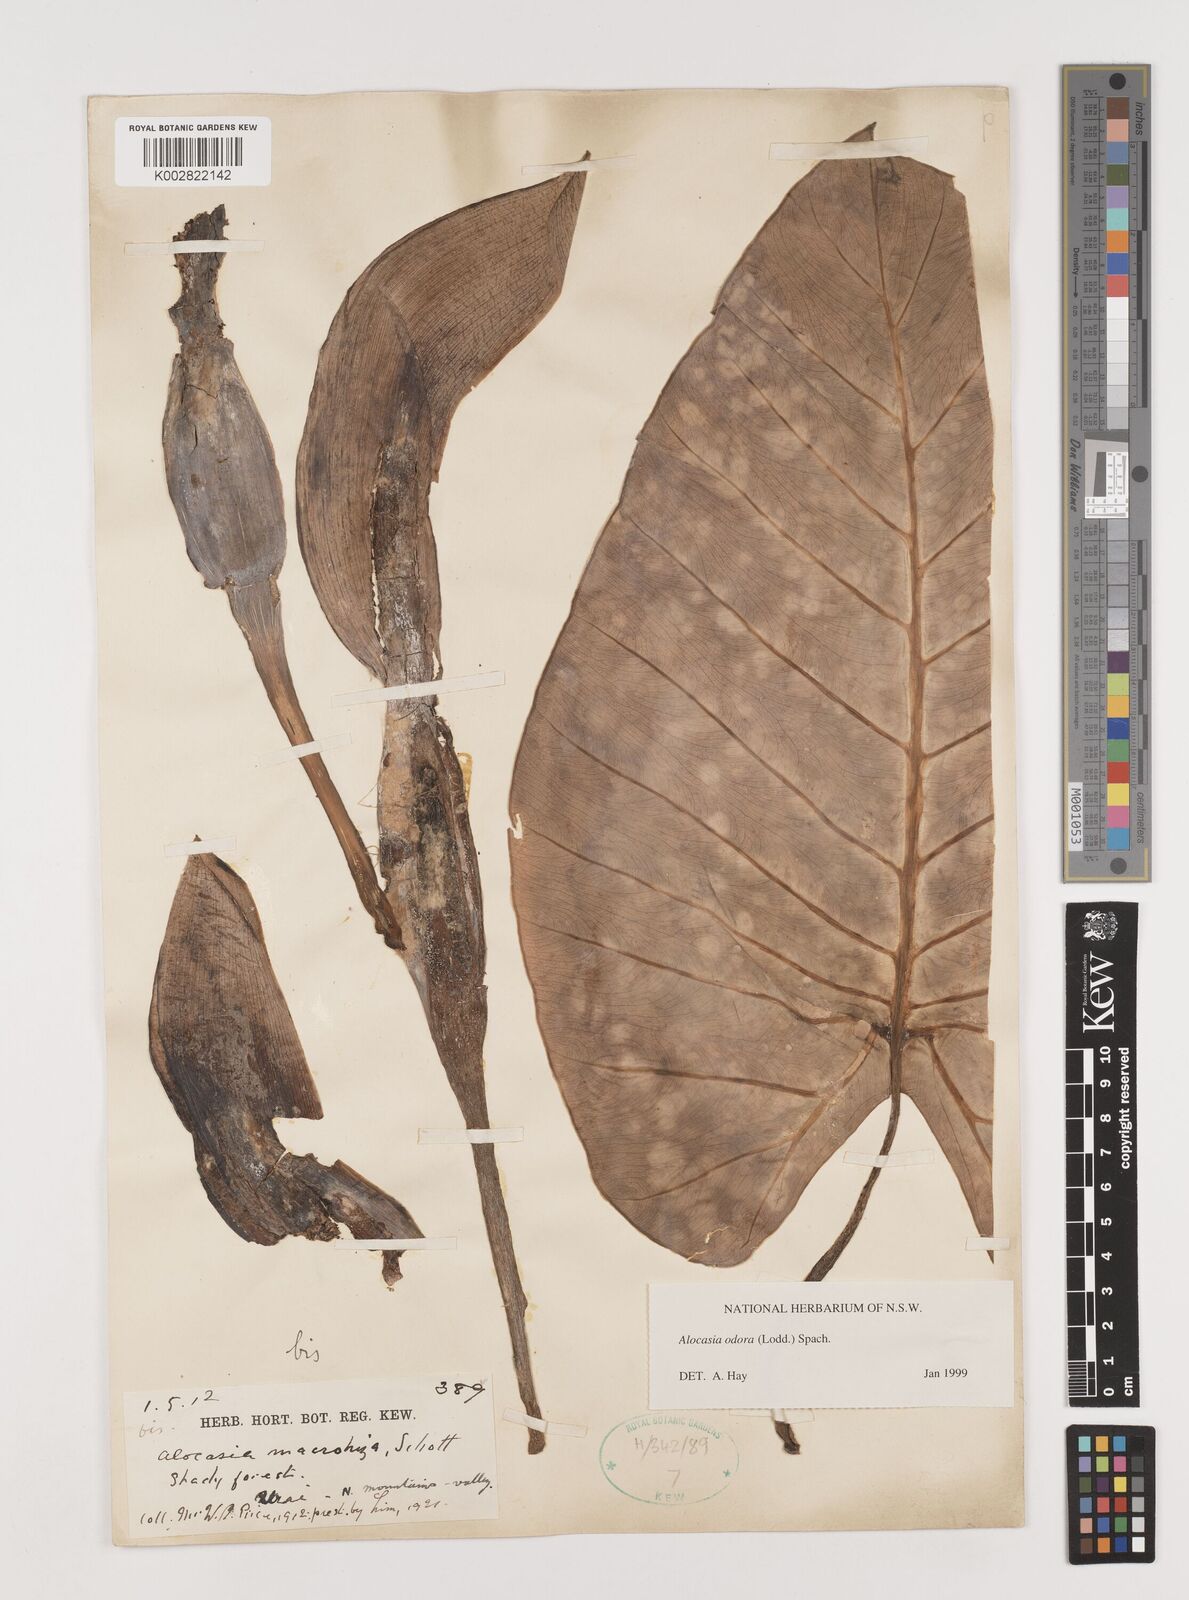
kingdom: Plantae
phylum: Tracheophyta
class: Liliopsida
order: Alismatales
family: Araceae
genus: Alocasia
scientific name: Alocasia odora
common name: Asian taro
